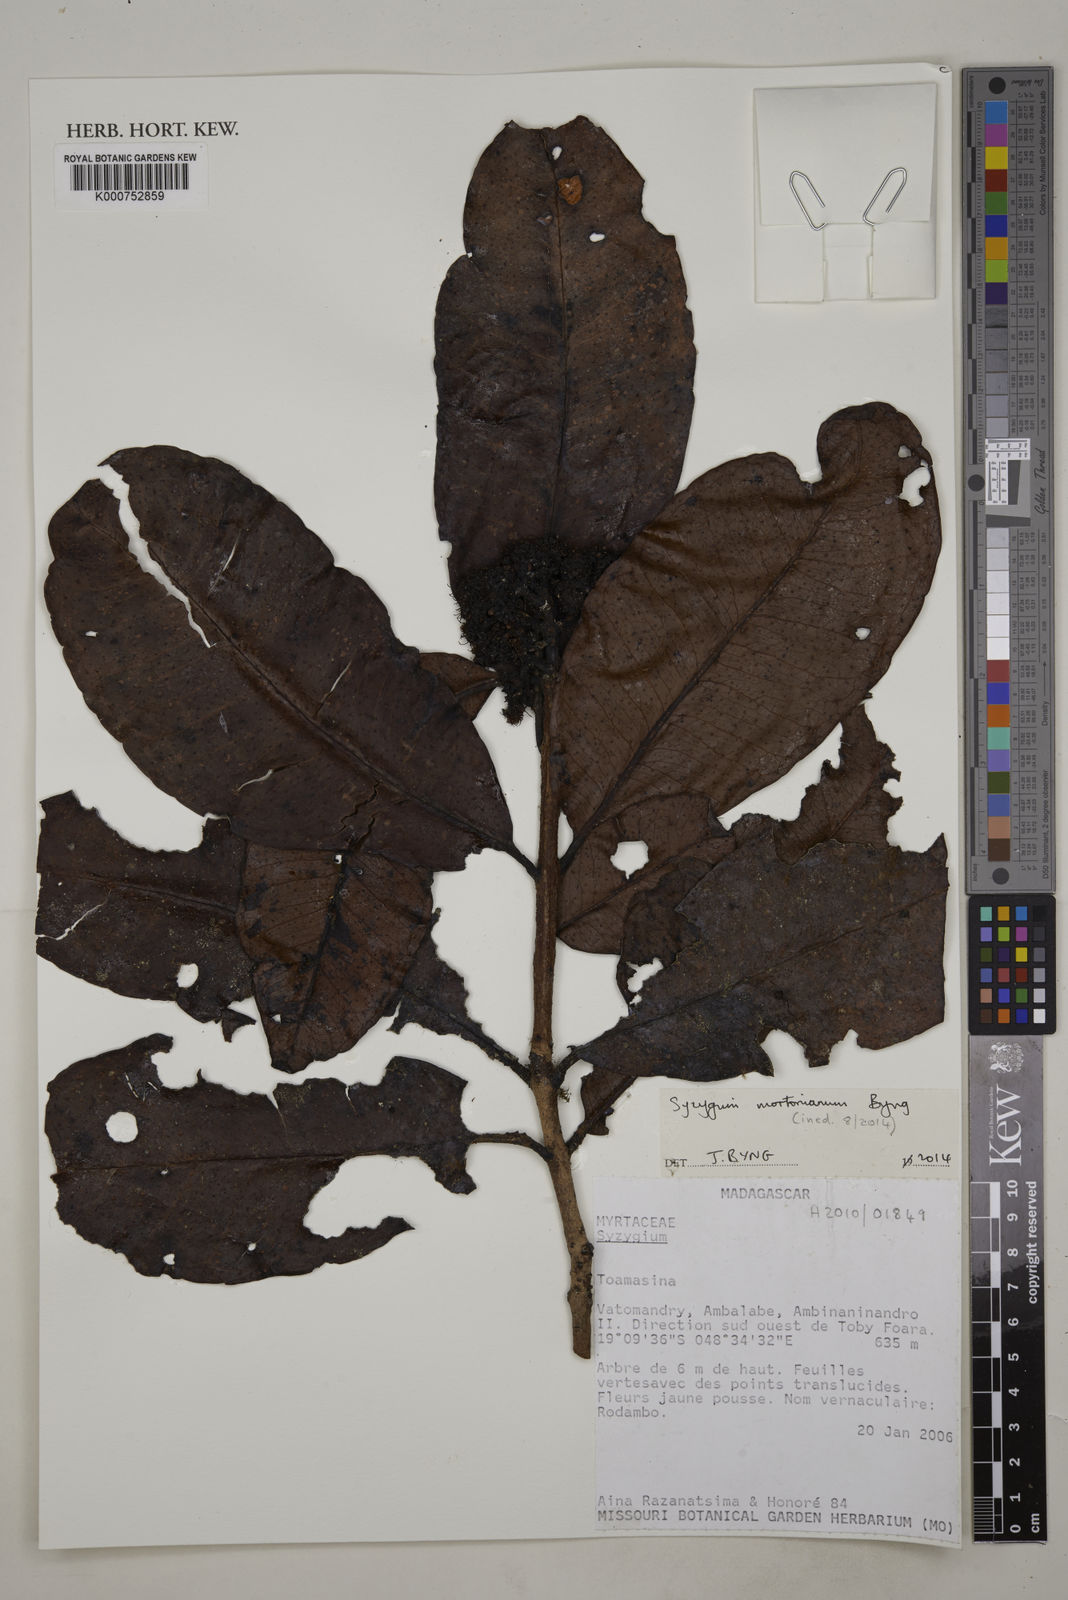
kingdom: Plantae
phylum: Tracheophyta
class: Magnoliopsida
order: Myrtales
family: Myrtaceae
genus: Syzygium
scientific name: Syzygium
